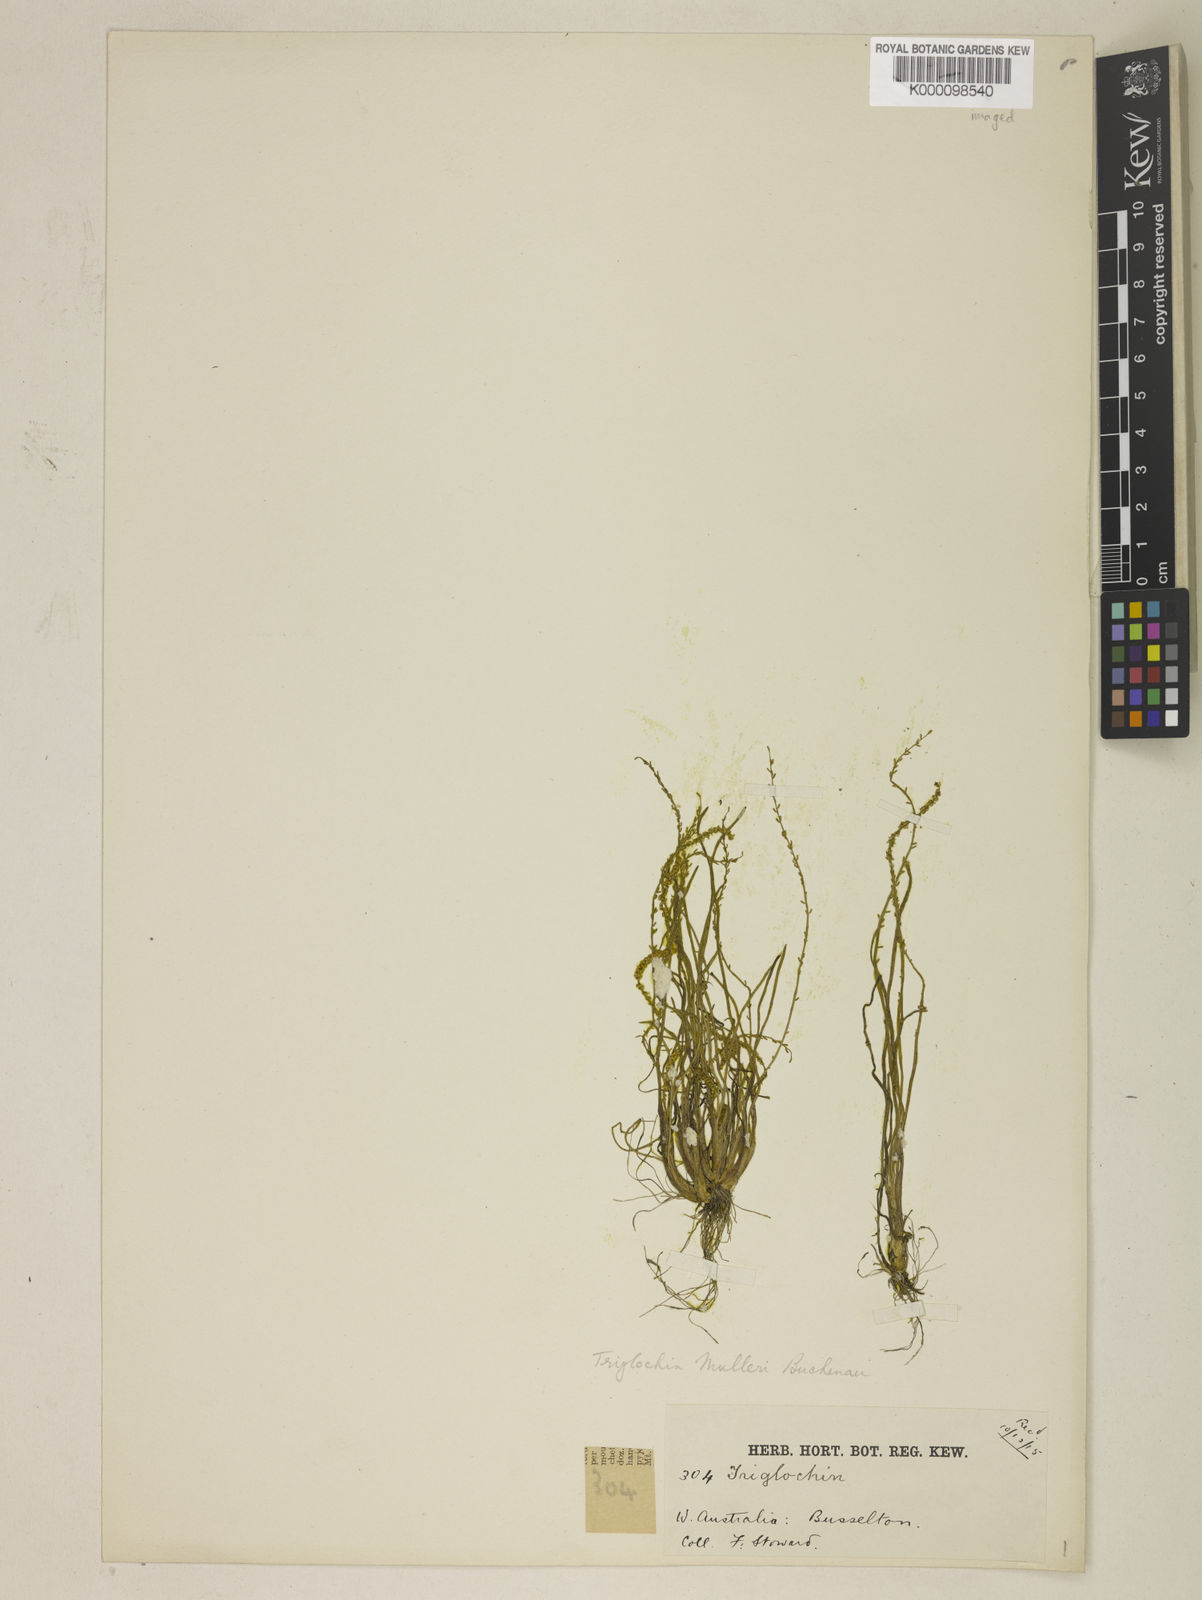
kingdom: Plantae
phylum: Tracheophyta
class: Liliopsida
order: Alismatales
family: Juncaginaceae
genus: Triglochin
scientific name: Triglochin muelleri
